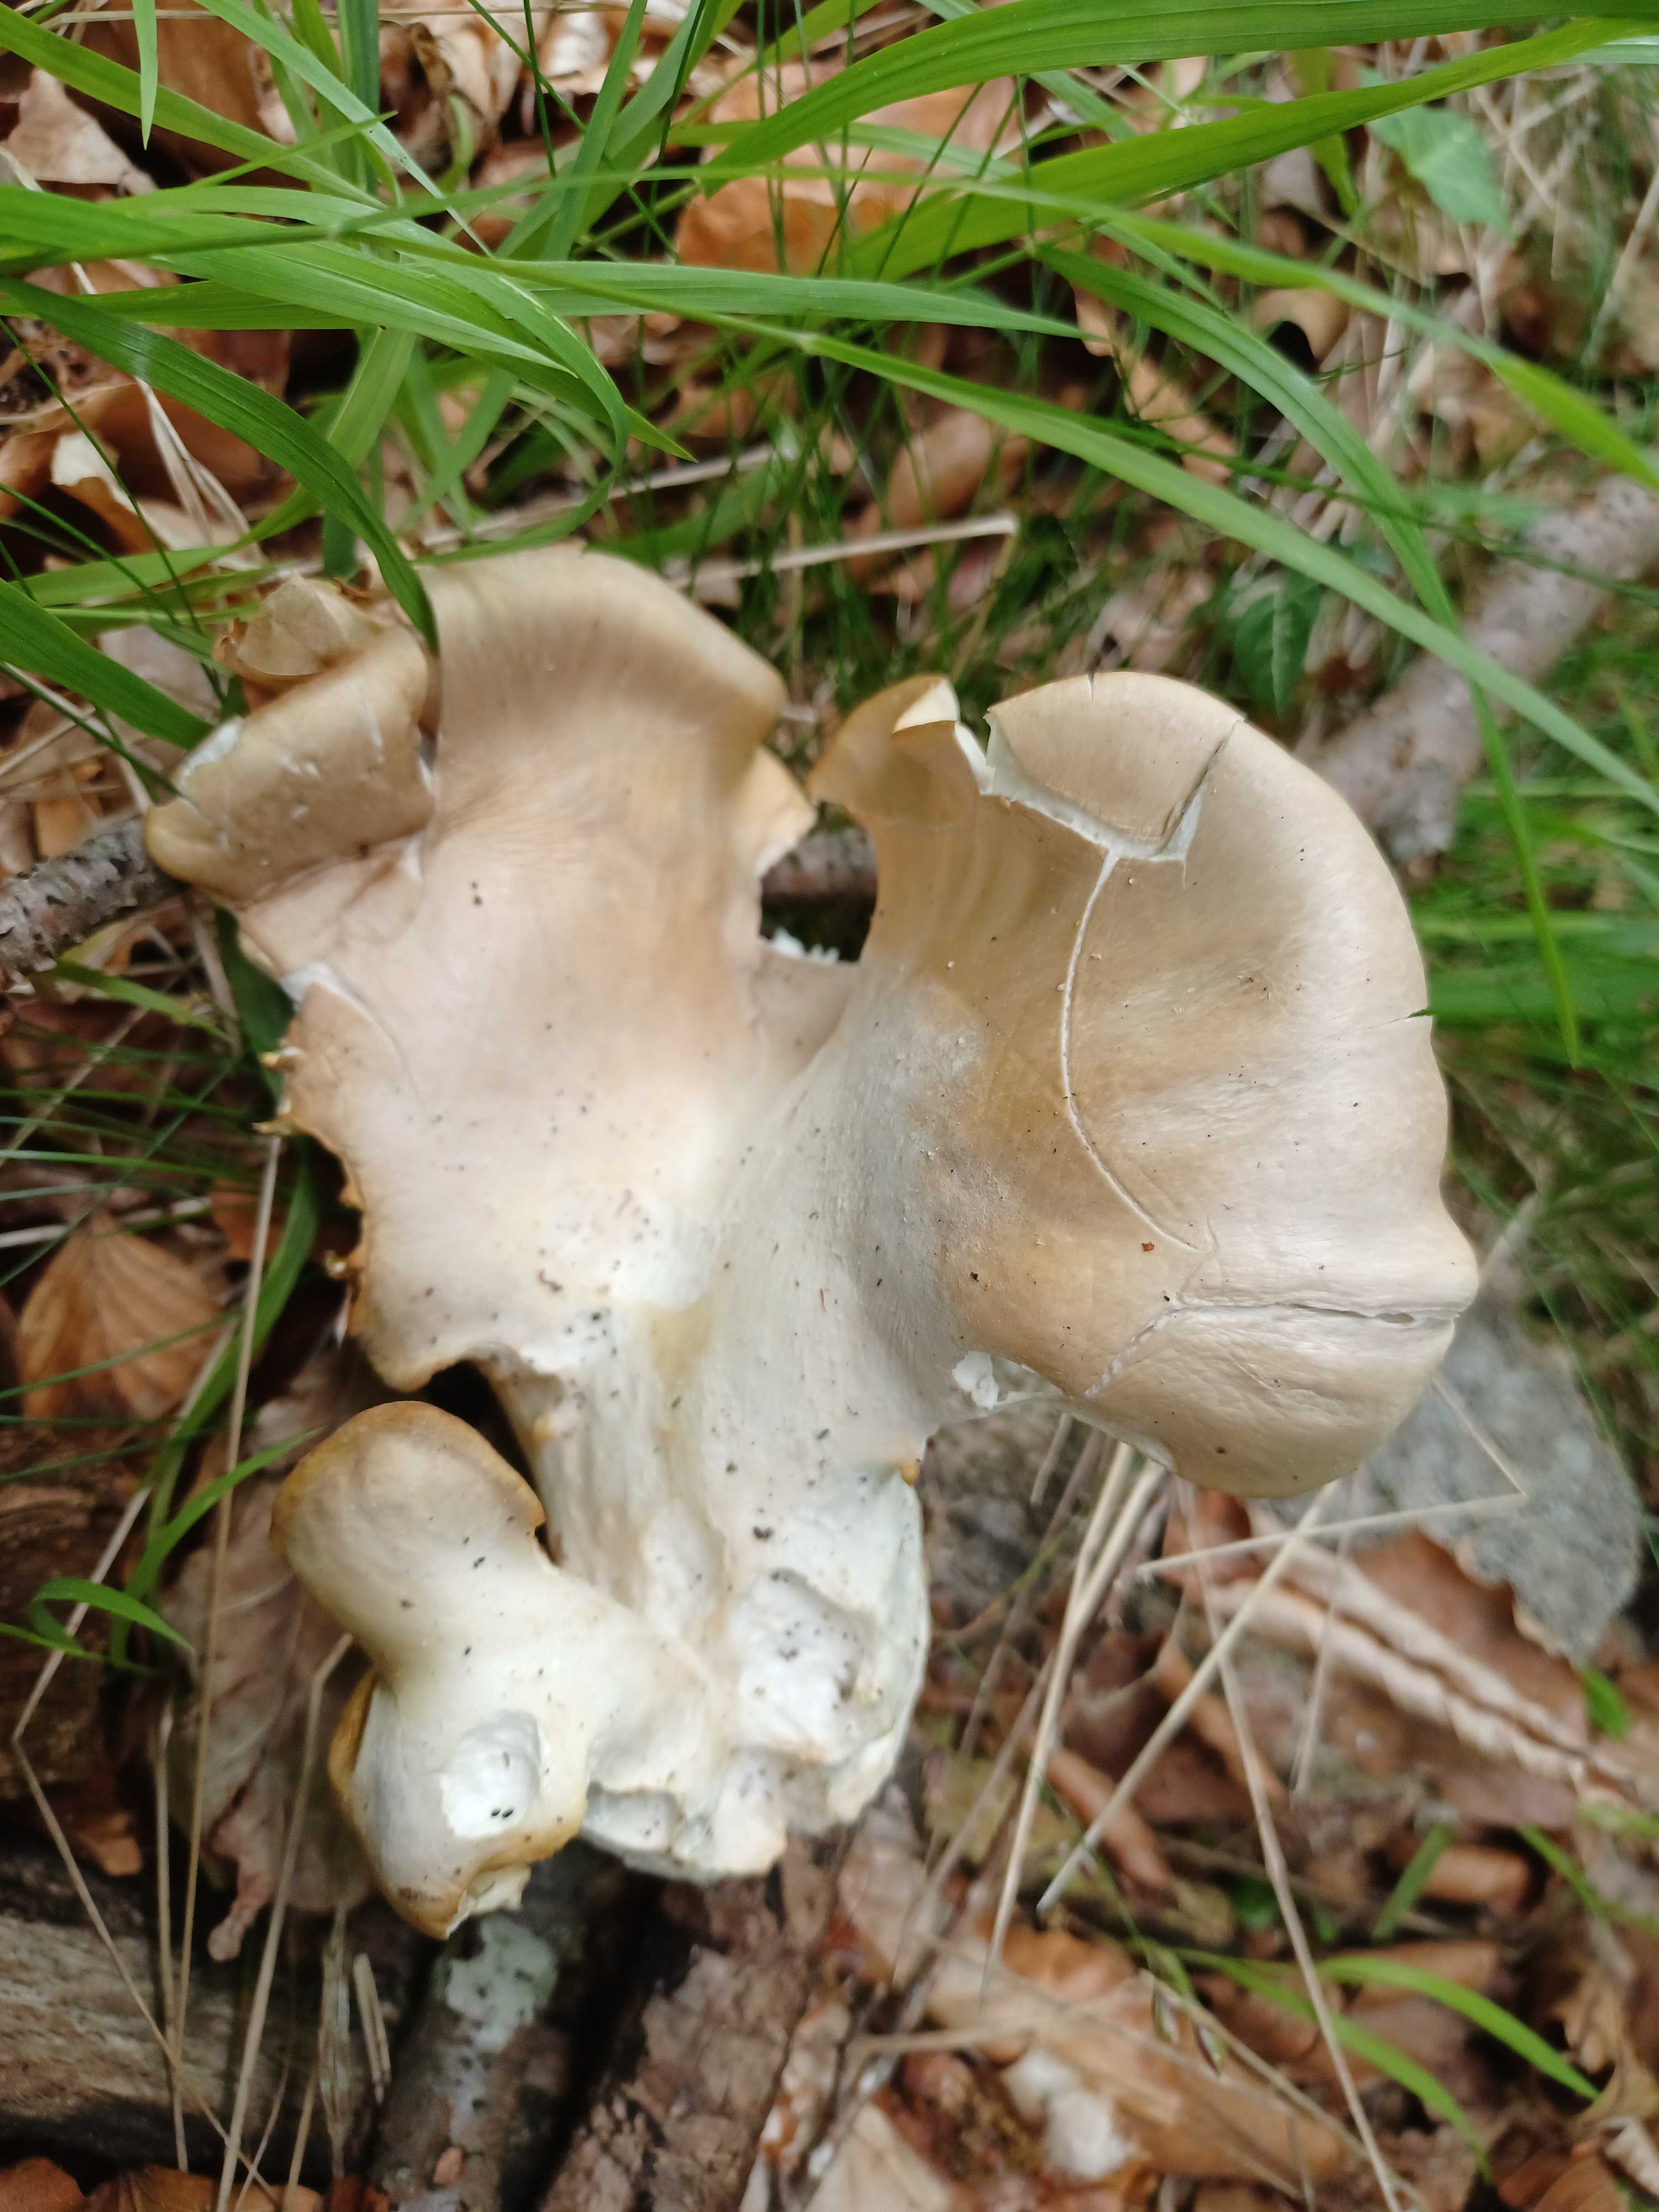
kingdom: Fungi
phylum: Basidiomycota
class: Agaricomycetes
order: Agaricales
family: Pleurotaceae
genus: Pleurotus
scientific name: Pleurotus pulmonarius
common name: sommer-østershat
